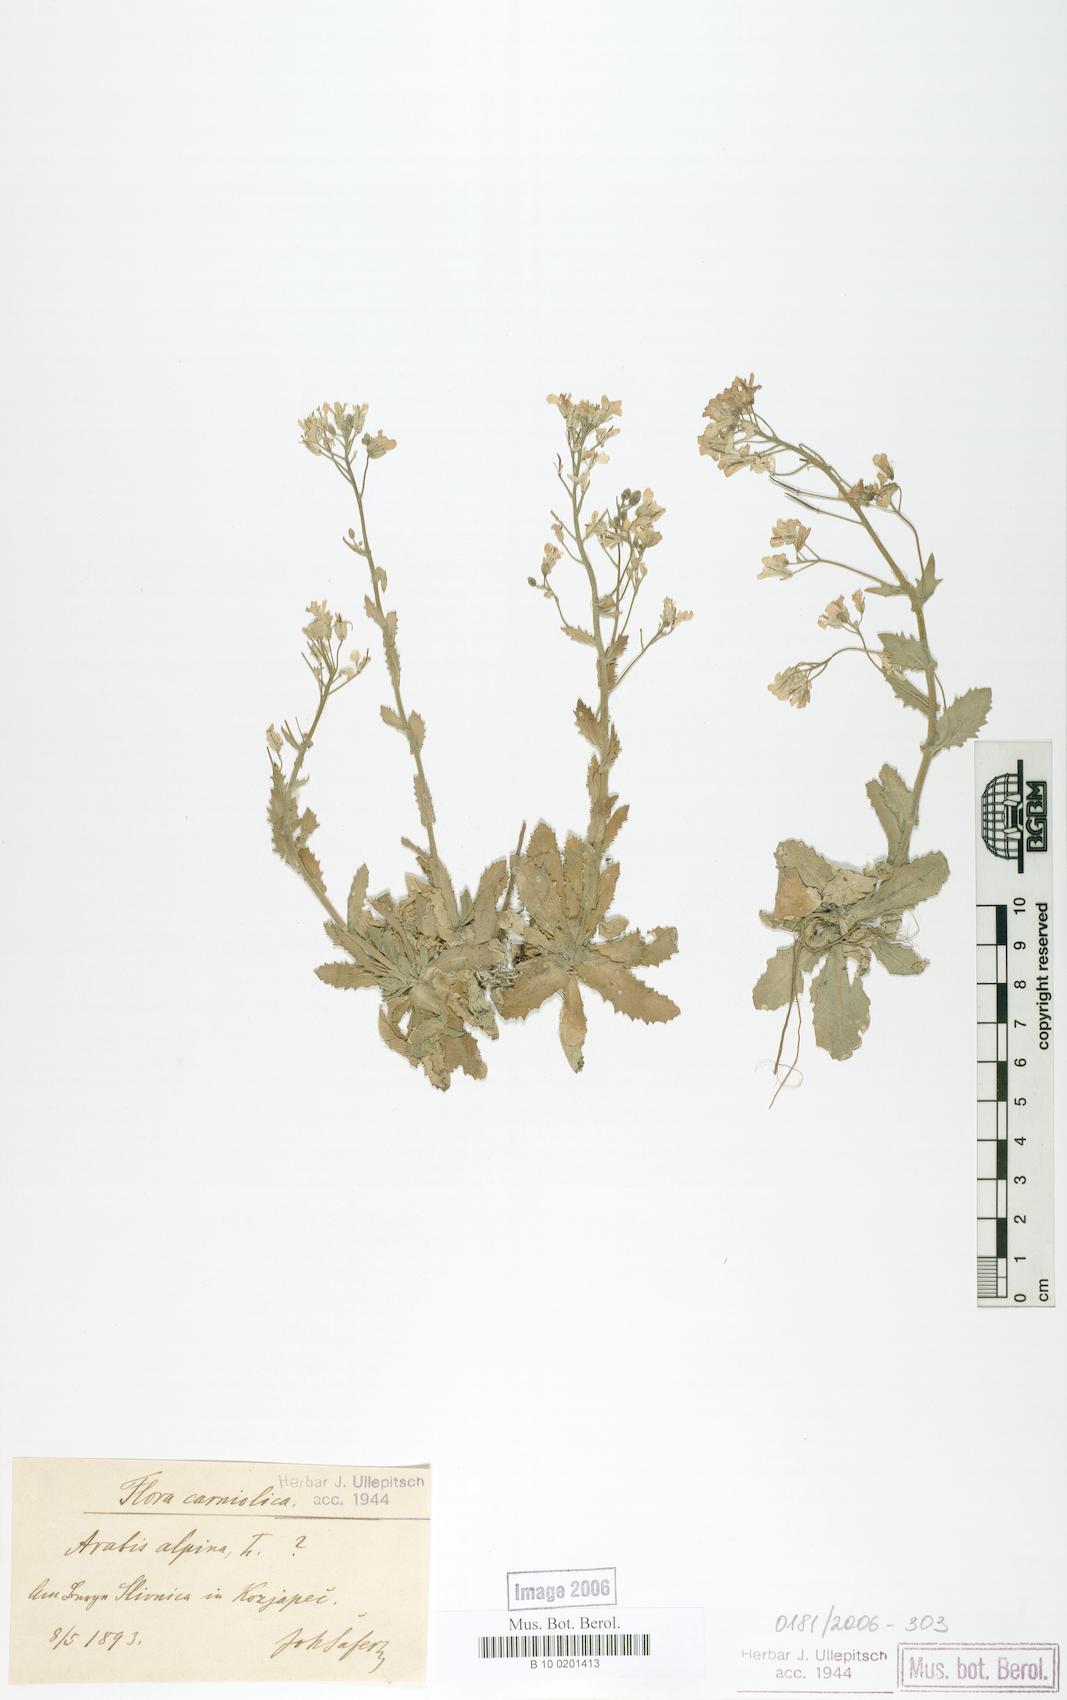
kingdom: Plantae
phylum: Tracheophyta
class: Magnoliopsida
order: Brassicales
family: Brassicaceae
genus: Arabis
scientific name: Arabis alpina
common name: Alpine rock-cress
